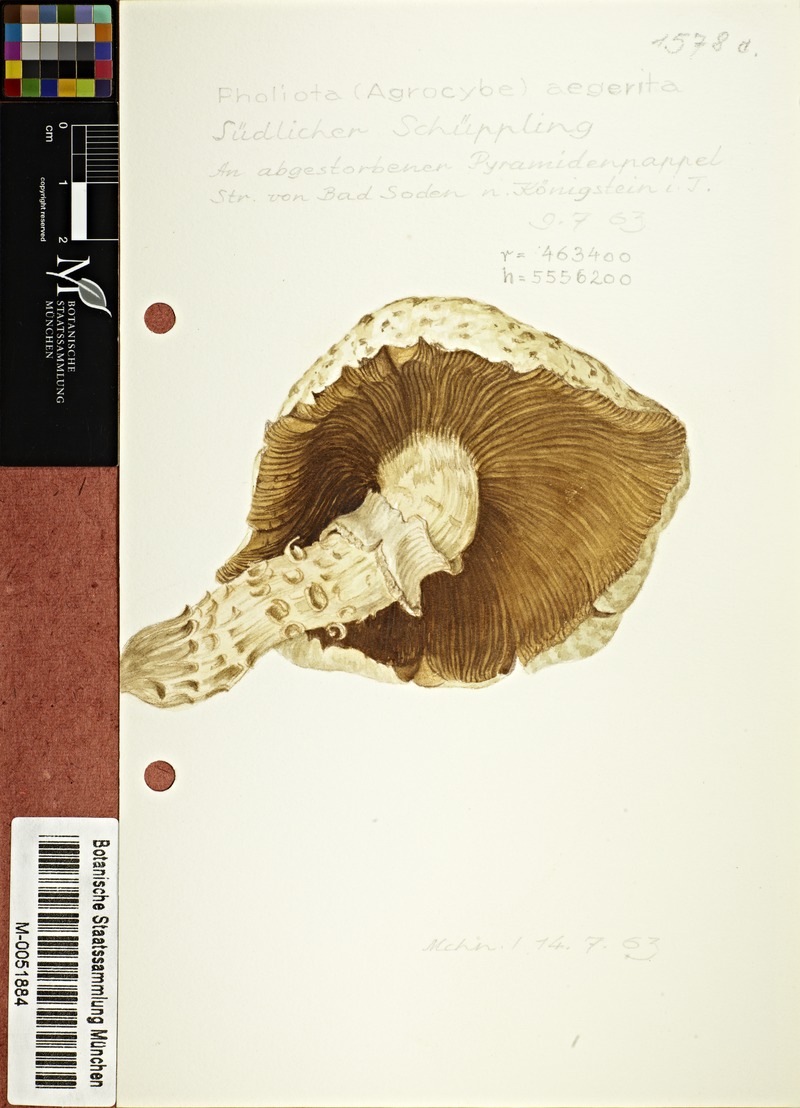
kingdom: Fungi
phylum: Basidiomycota
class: Agaricomycetes
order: Agaricales
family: Tubariaceae
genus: Cyclocybe
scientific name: Cyclocybe aegerita
